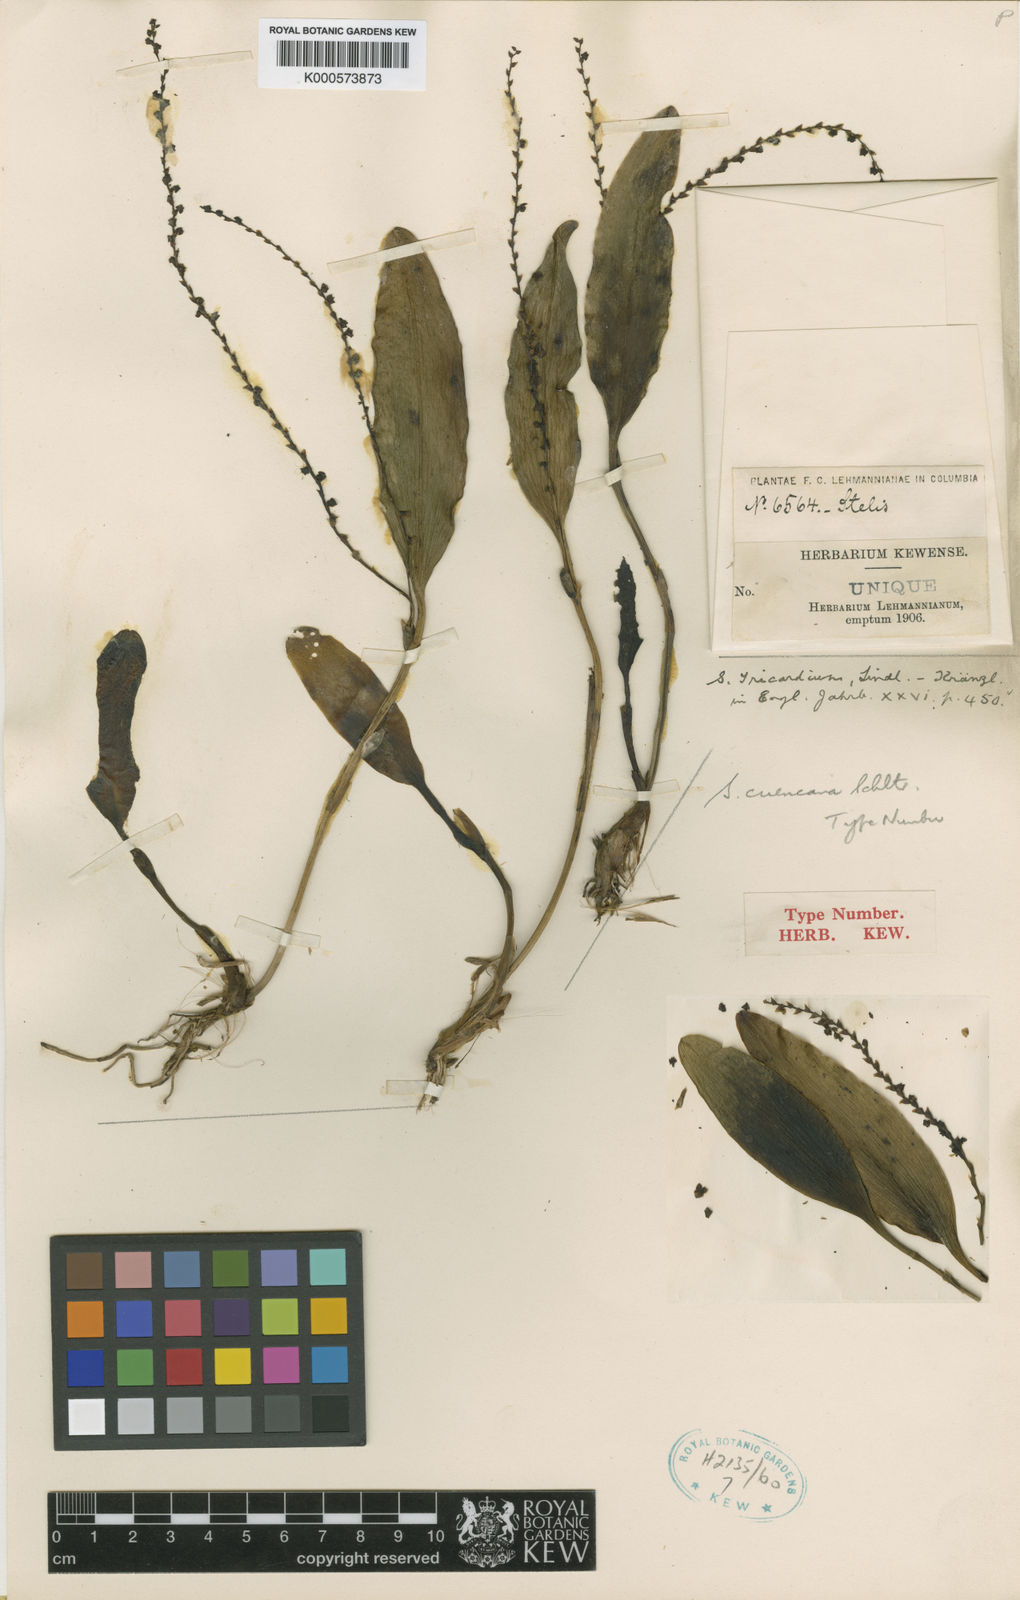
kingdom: Plantae
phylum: Tracheophyta
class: Liliopsida
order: Asparagales
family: Orchidaceae
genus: Stelis
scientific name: Stelis cuencana
